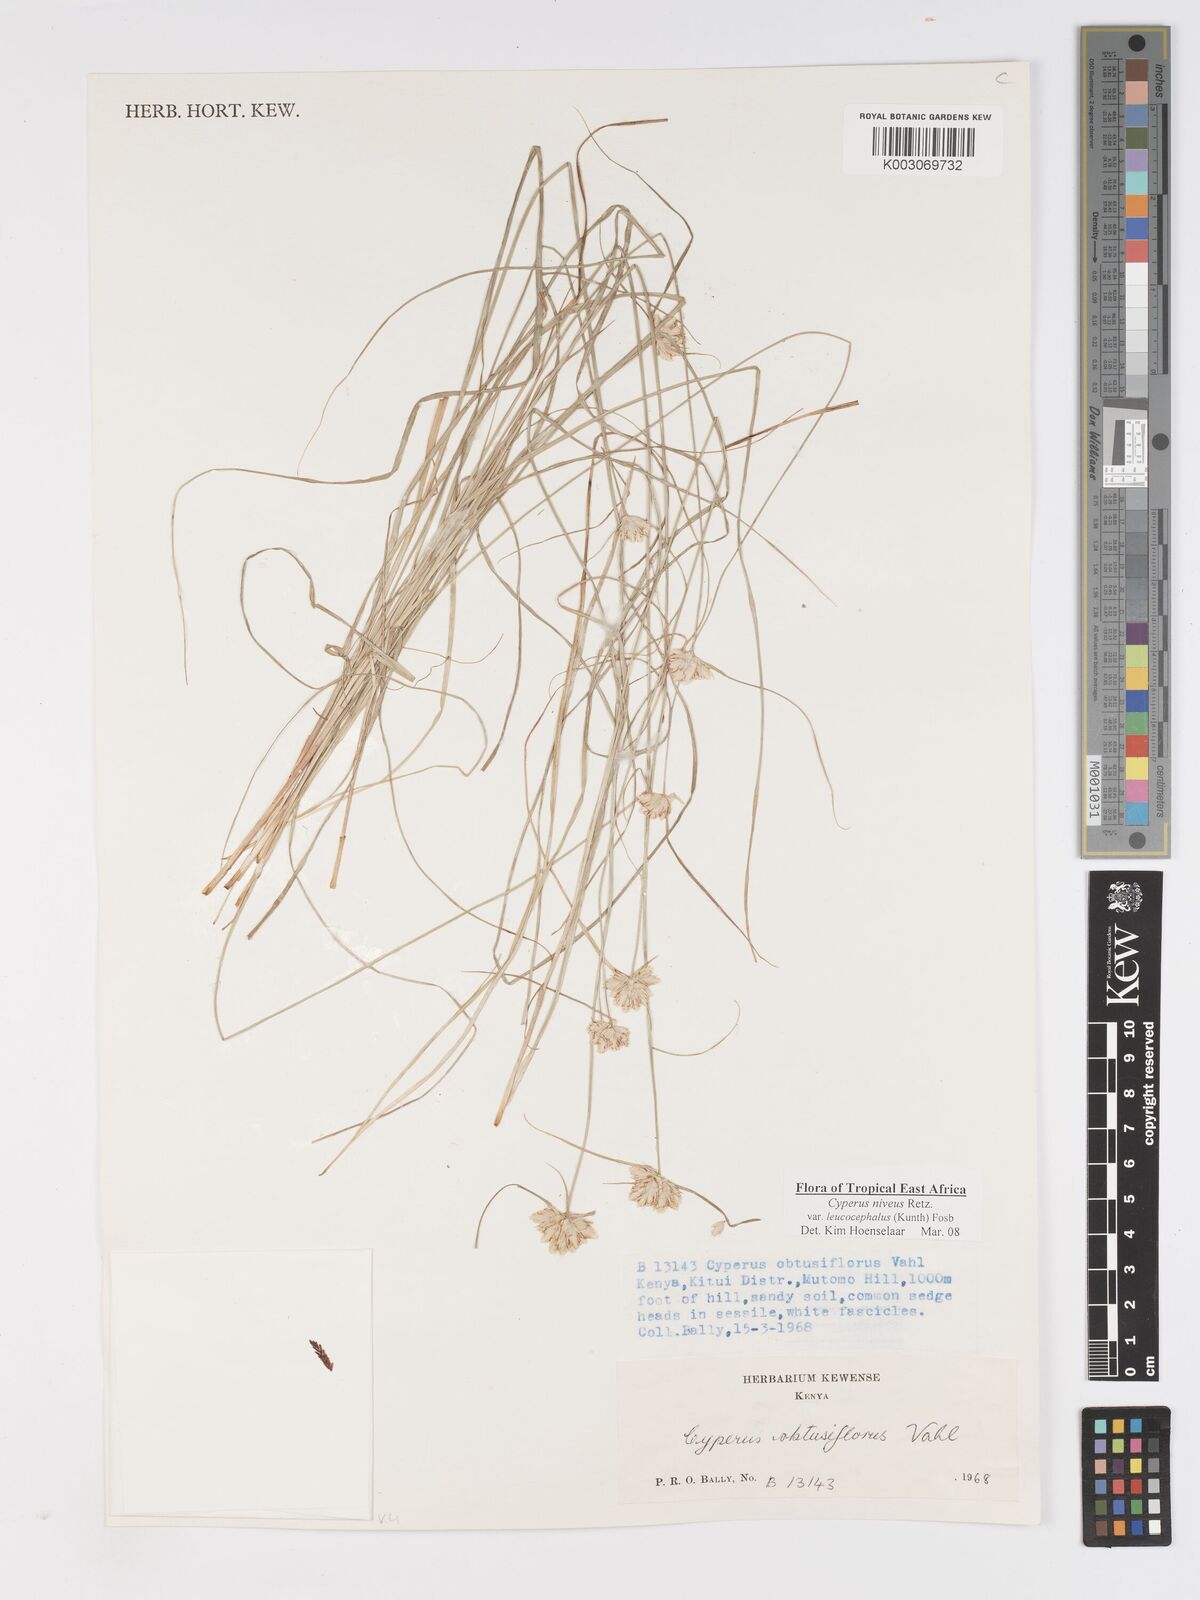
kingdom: Plantae
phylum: Tracheophyta
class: Liliopsida
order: Poales
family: Cyperaceae
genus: Cyperus
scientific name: Cyperus niveus
